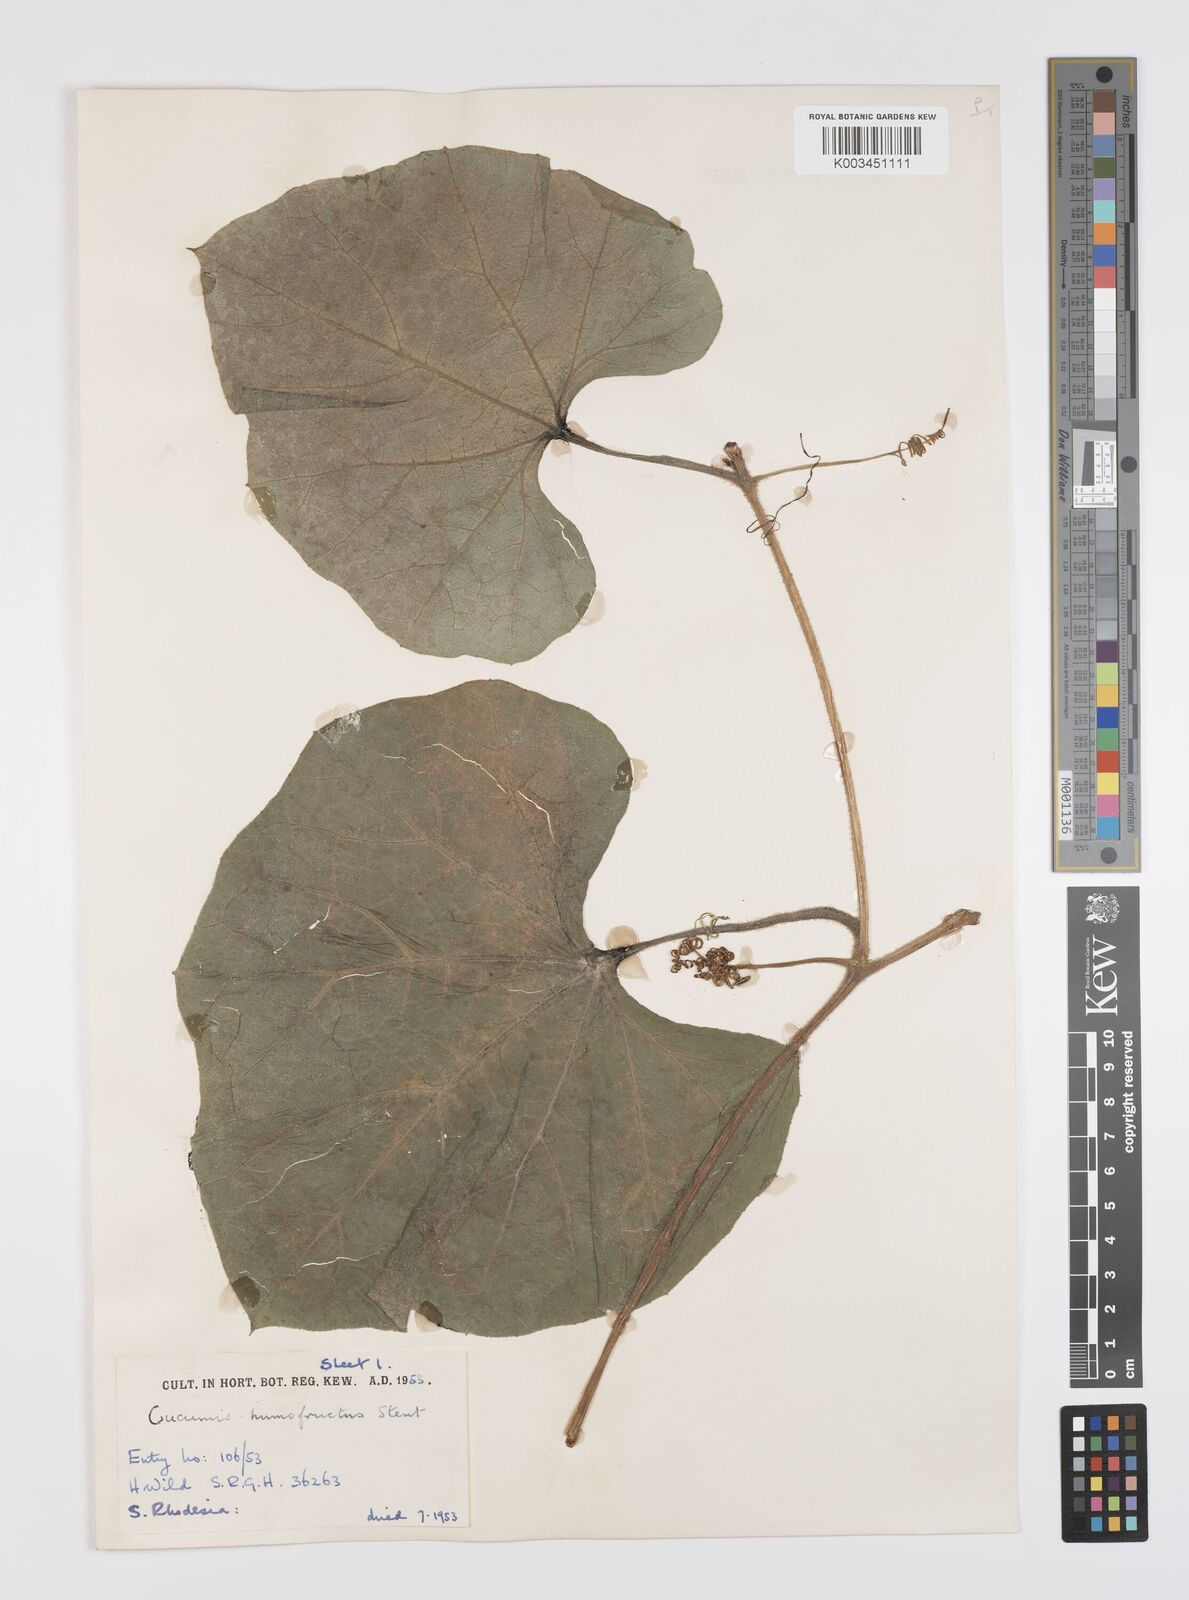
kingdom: Plantae
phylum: Tracheophyta
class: Magnoliopsida
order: Cucurbitales
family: Cucurbitaceae
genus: Lagenaria
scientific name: Lagenaria siceraria
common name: Bottle gourd
